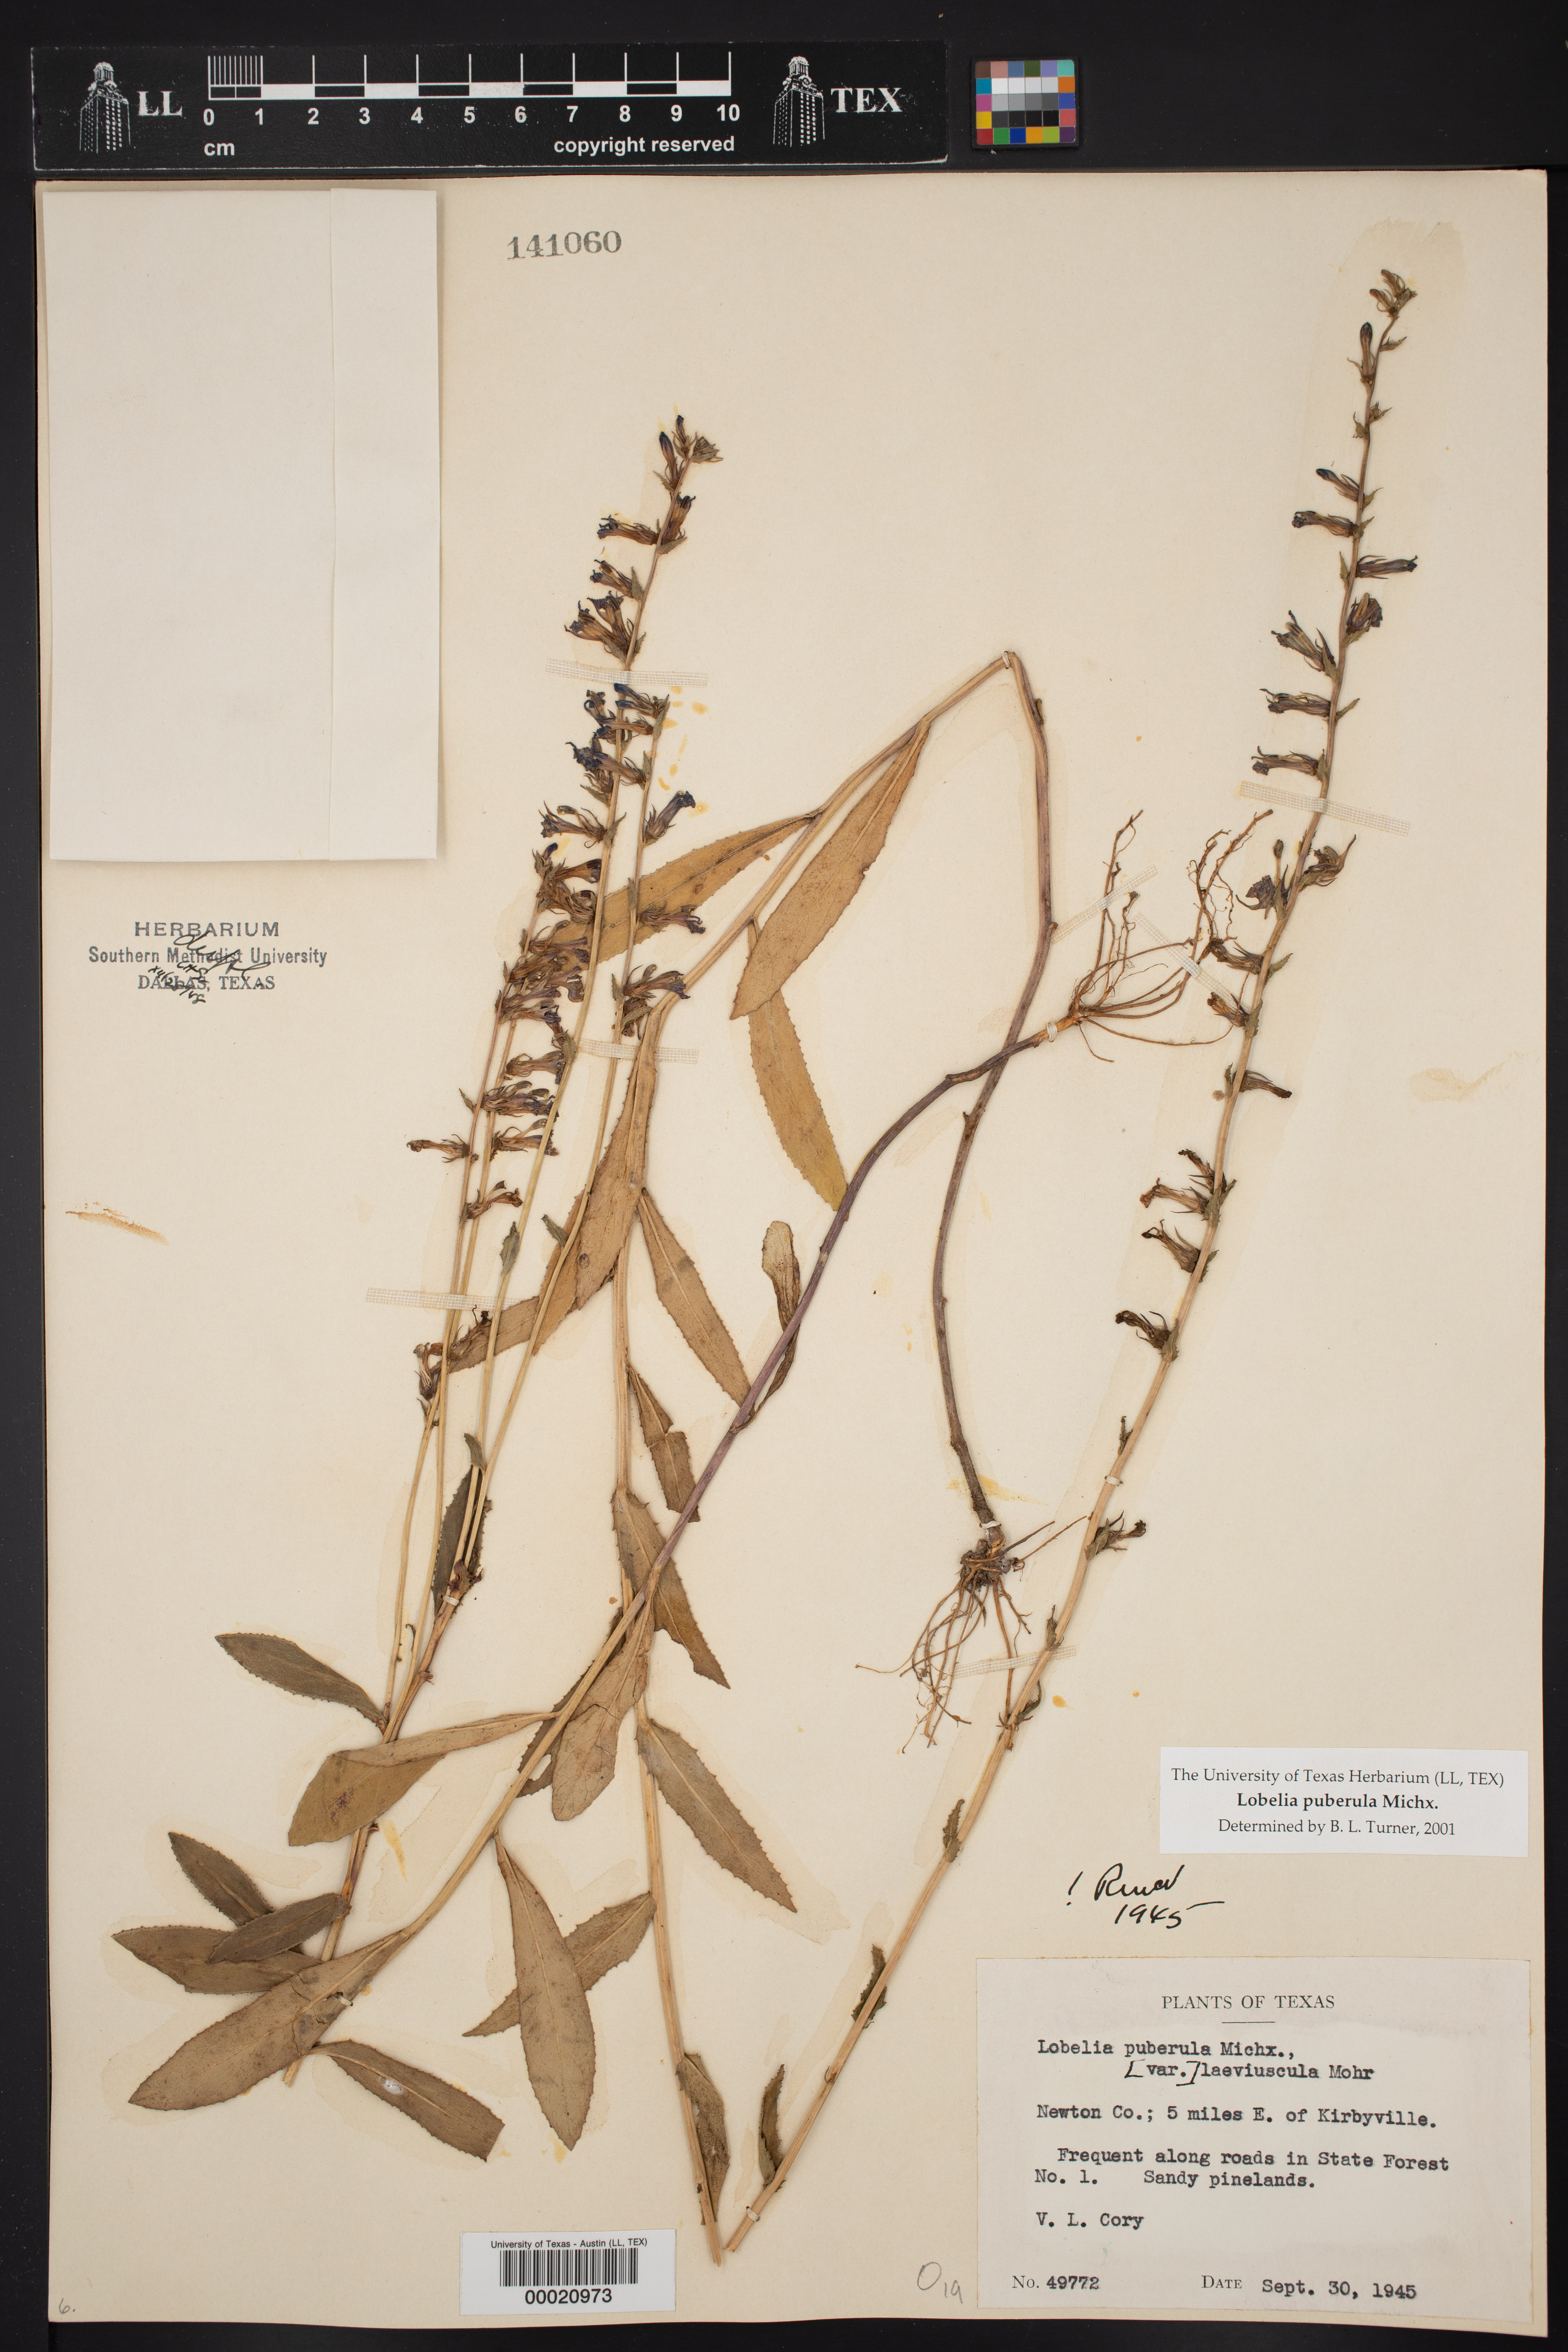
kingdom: Plantae
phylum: Tracheophyta
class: Magnoliopsida
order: Asterales
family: Campanulaceae
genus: Lobelia
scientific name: Lobelia puberula
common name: Purple dewdrop
